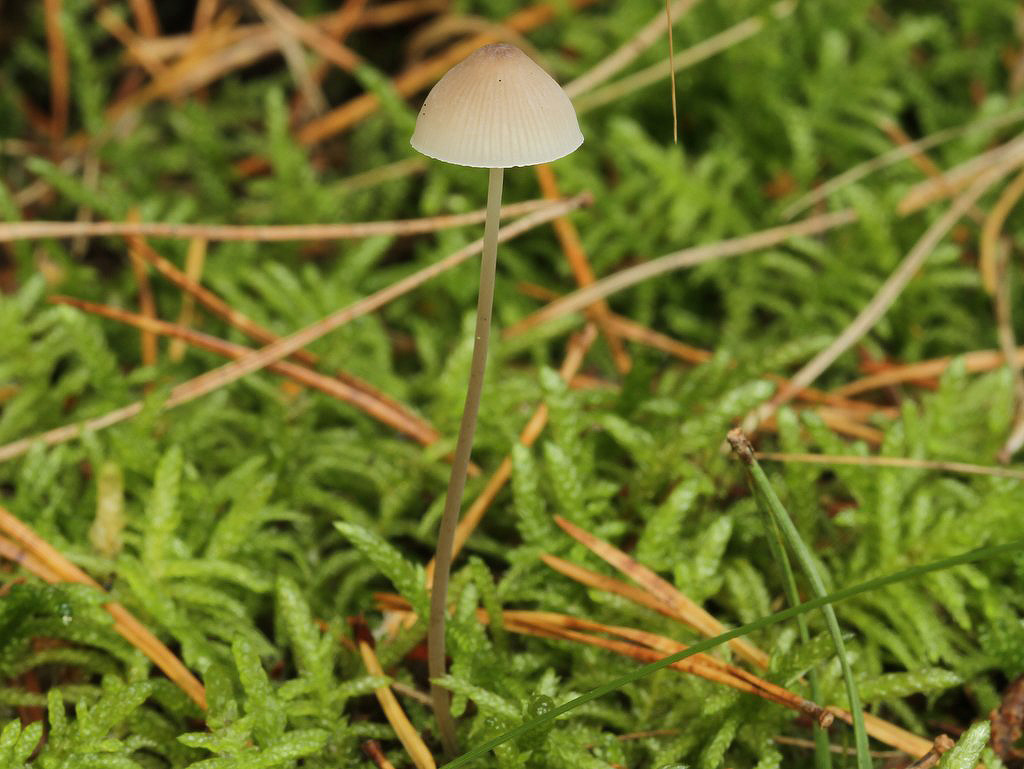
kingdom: Fungi
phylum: Basidiomycota
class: Agaricomycetes
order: Agaricales
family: Mycenaceae
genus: Mycena
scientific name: Mycena vitilis
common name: blankstokket huesvamp
